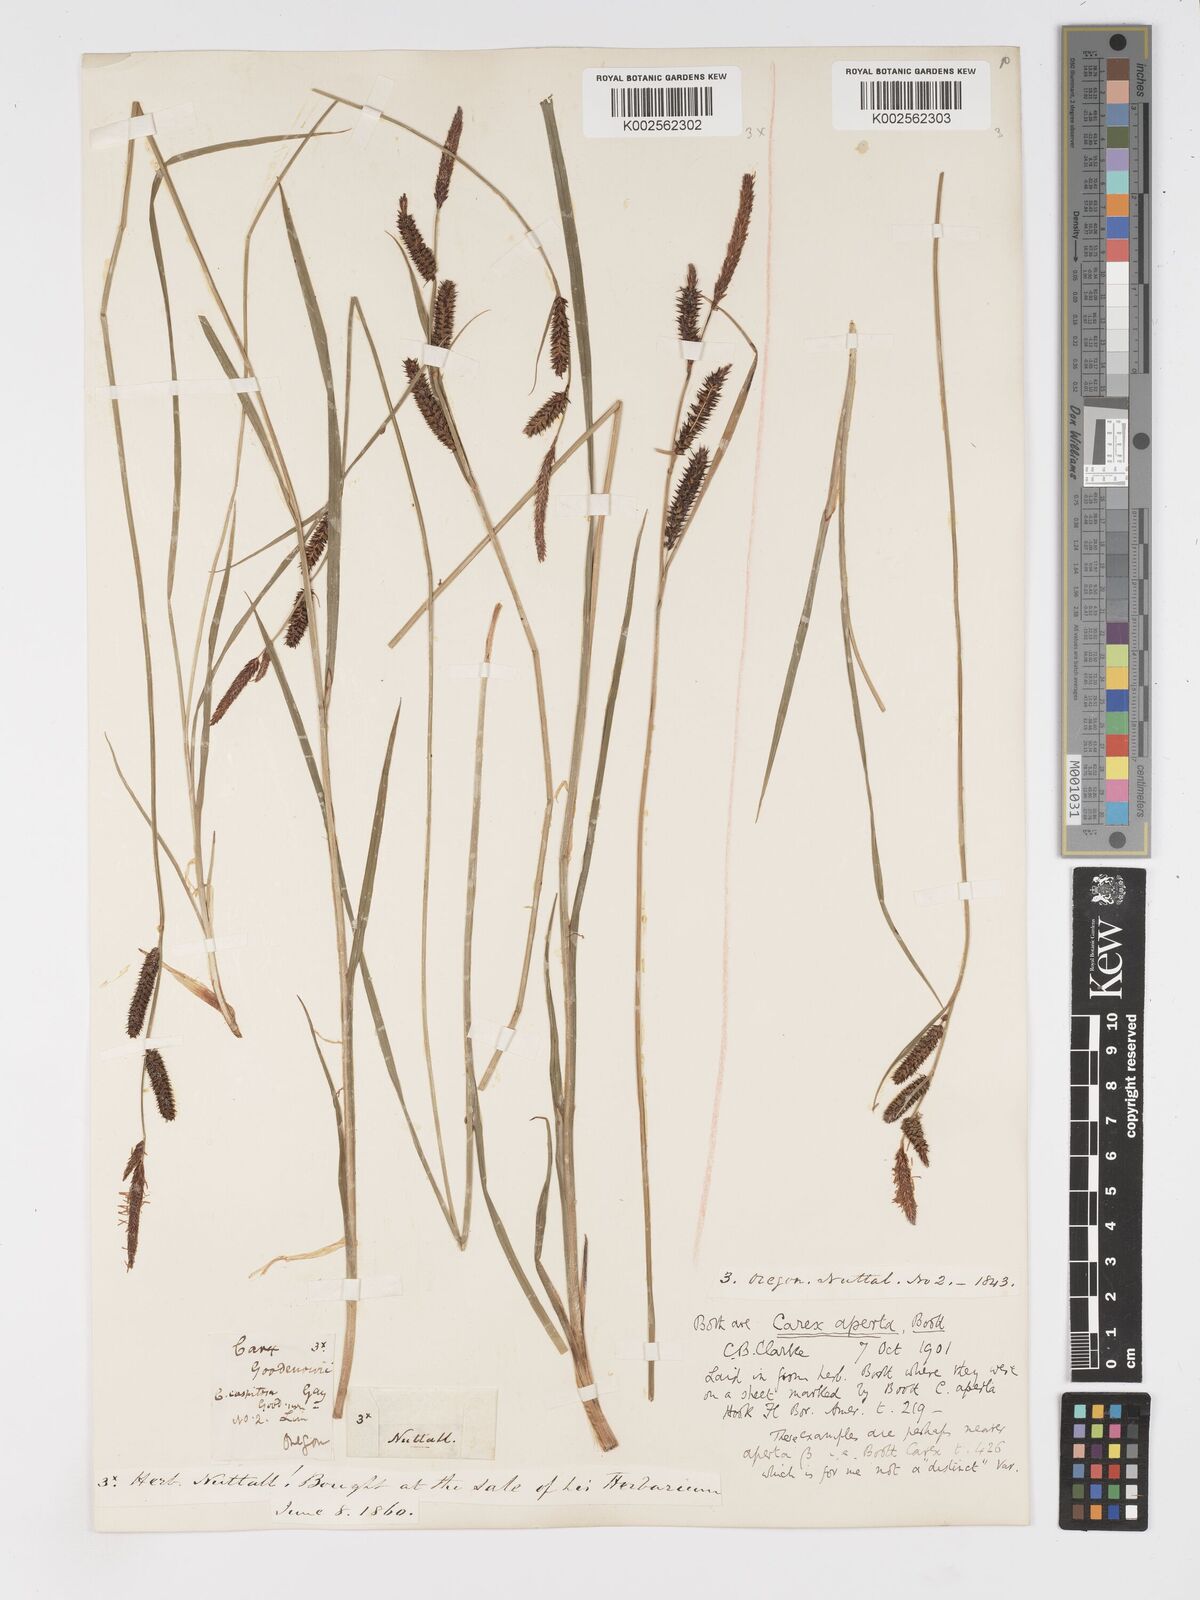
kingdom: Plantae
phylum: Tracheophyta
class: Liliopsida
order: Poales
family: Cyperaceae
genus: Carex
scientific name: Carex aperta
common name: Columbia sedge
